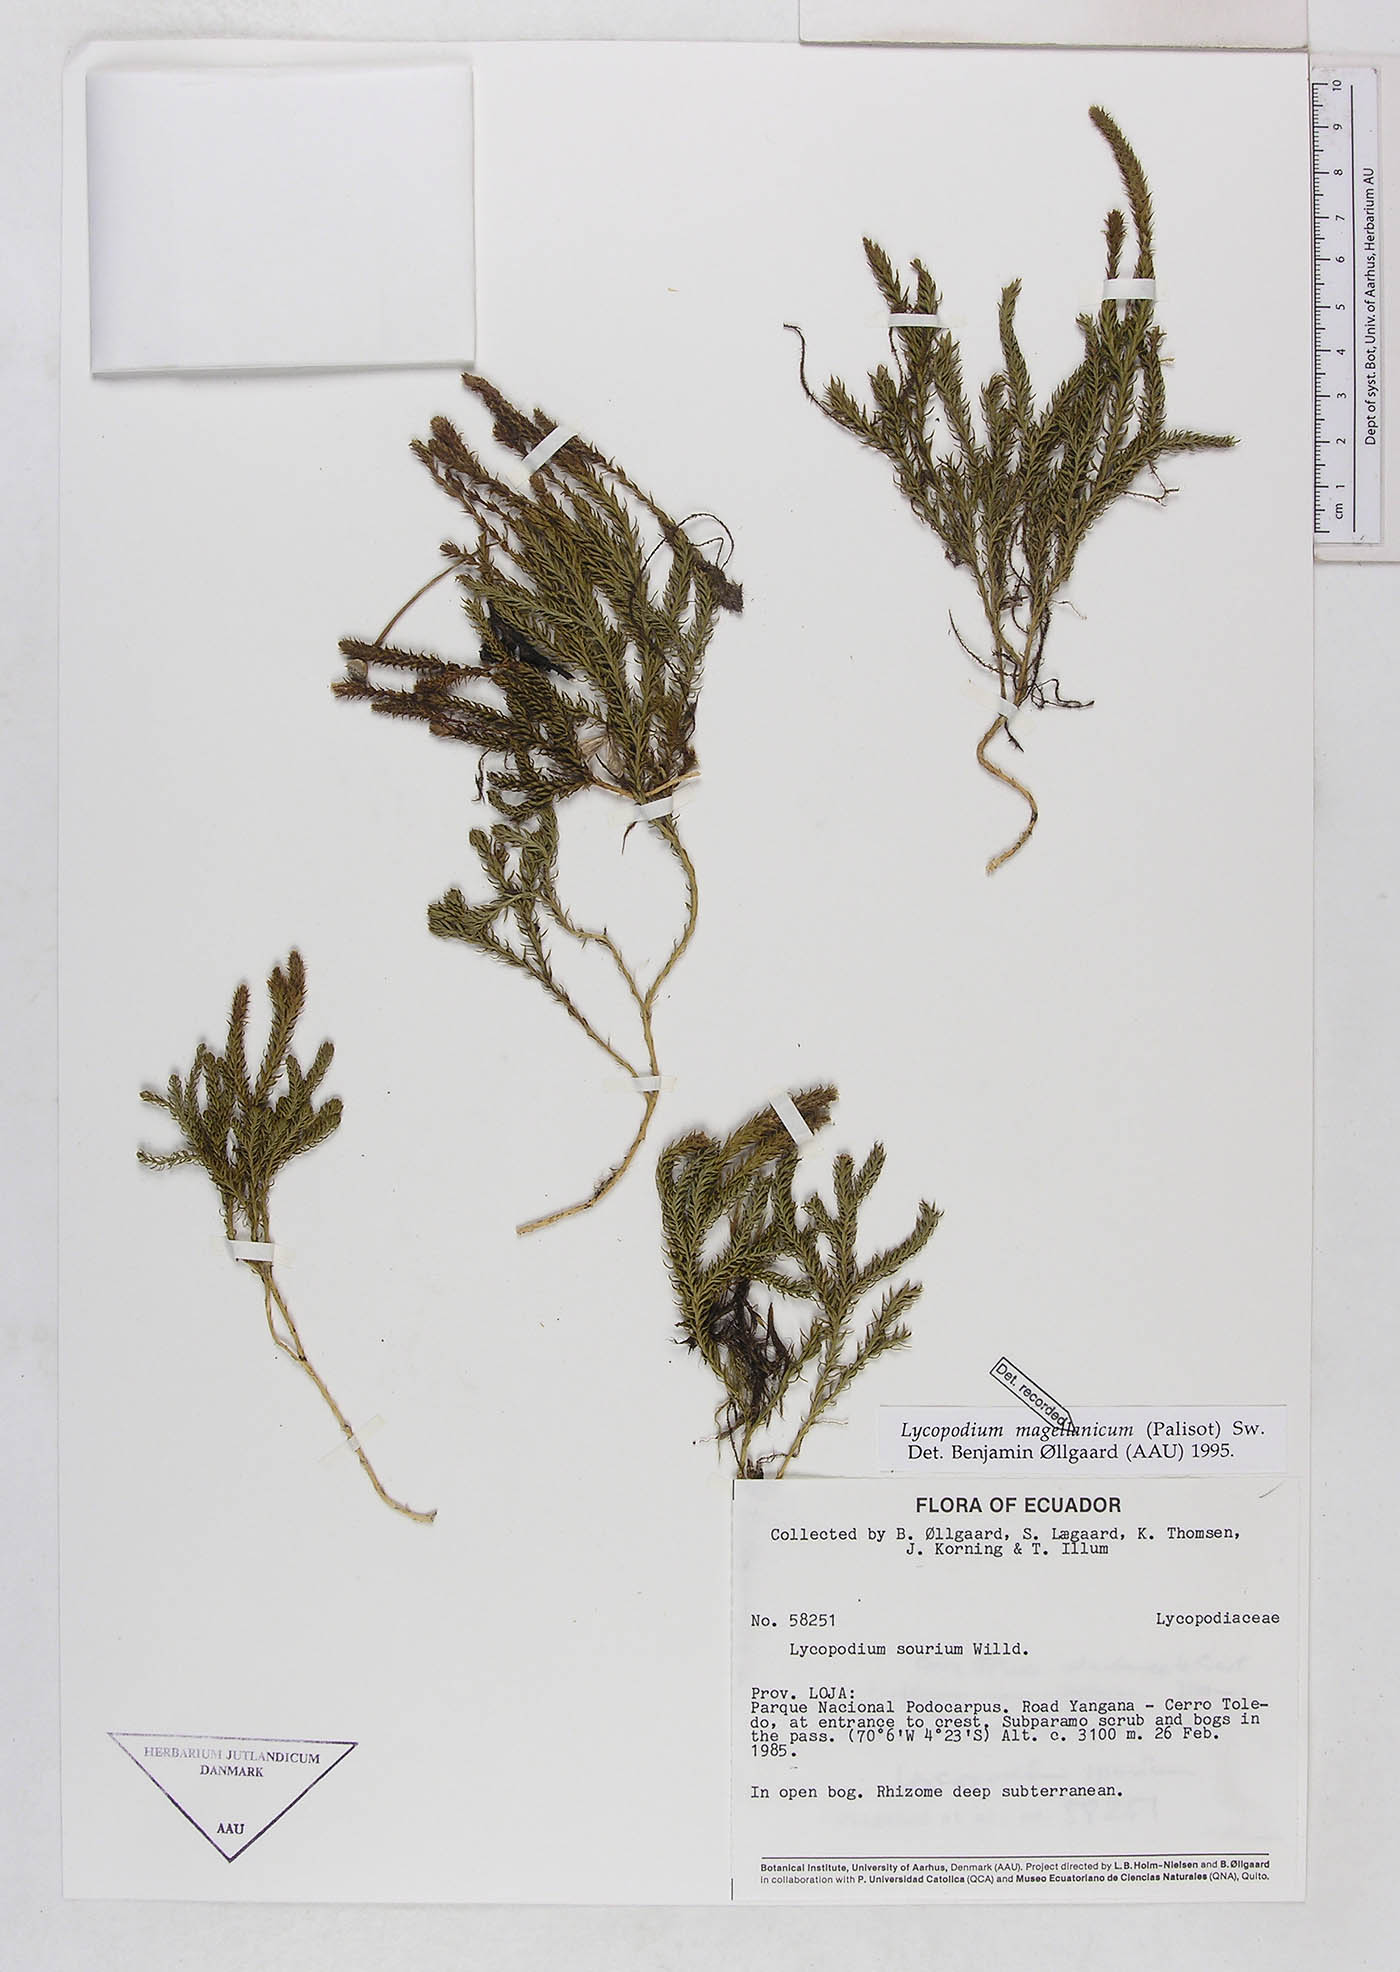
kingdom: Plantae
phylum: Tracheophyta
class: Lycopodiopsida
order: Lycopodiales
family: Lycopodiaceae
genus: Austrolycopodium
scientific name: Austrolycopodium magellanicum
